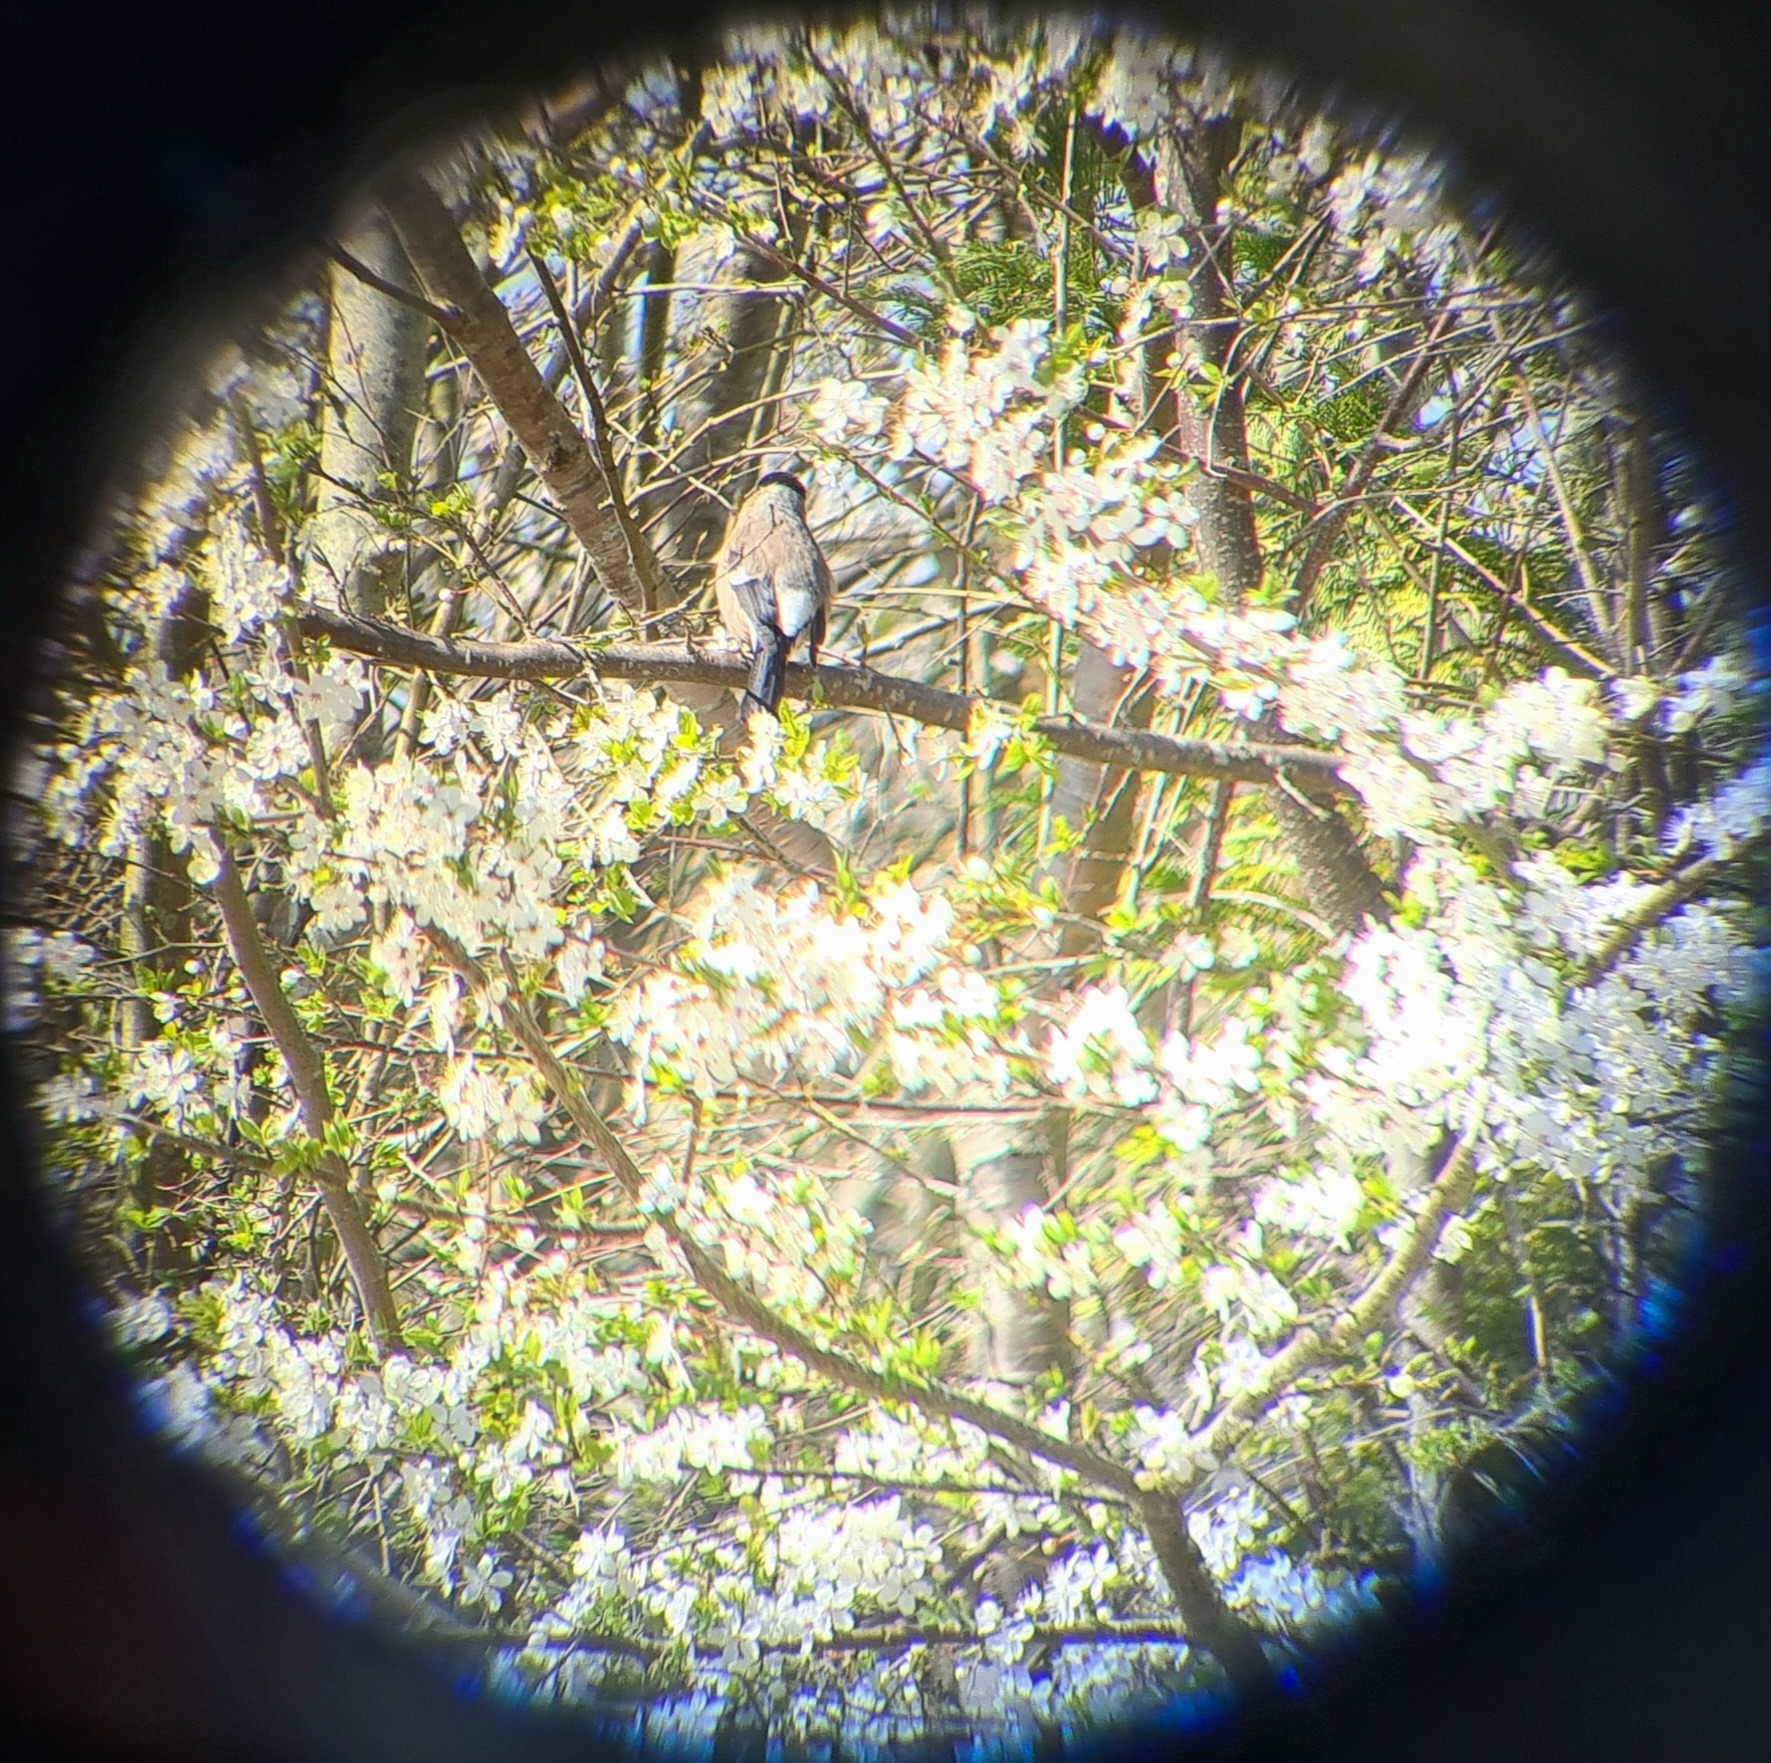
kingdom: Animalia
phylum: Chordata
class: Aves
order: Passeriformes
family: Fringillidae
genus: Pyrrhula
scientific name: Pyrrhula pyrrhula
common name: Dompap
